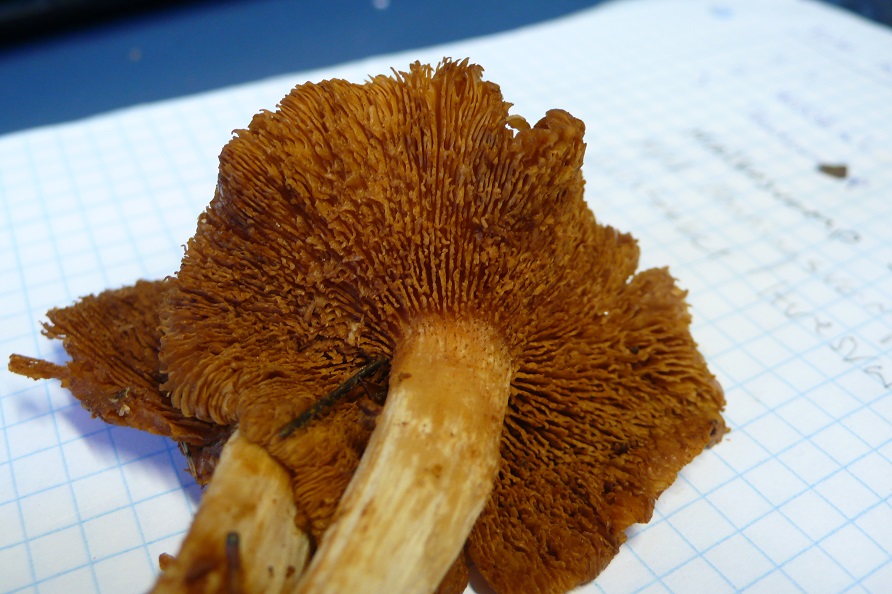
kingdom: Fungi
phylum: Basidiomycota
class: Agaricomycetes
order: Agaricales
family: Hymenogastraceae
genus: Gymnopilus
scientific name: Gymnopilus penetrans
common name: plettet flammehat
